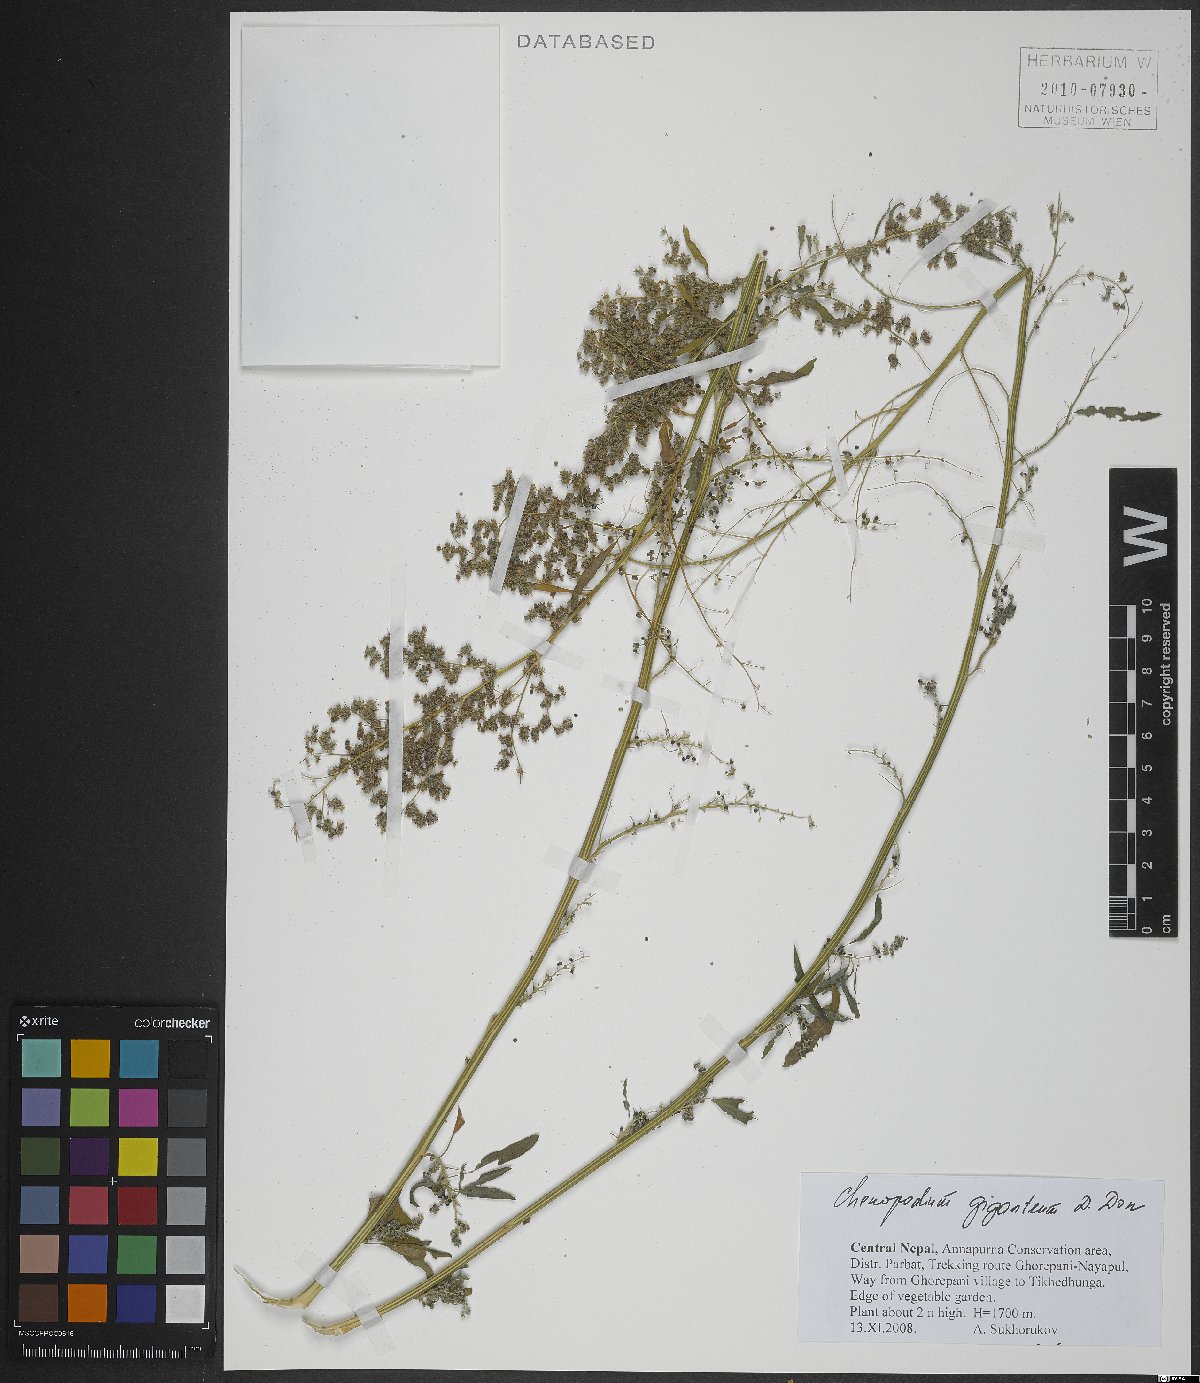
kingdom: Plantae
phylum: Tracheophyta
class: Magnoliopsida
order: Caryophyllales
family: Amaranthaceae
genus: Chenopodium
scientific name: Chenopodium giganteum
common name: Magentaspreen
